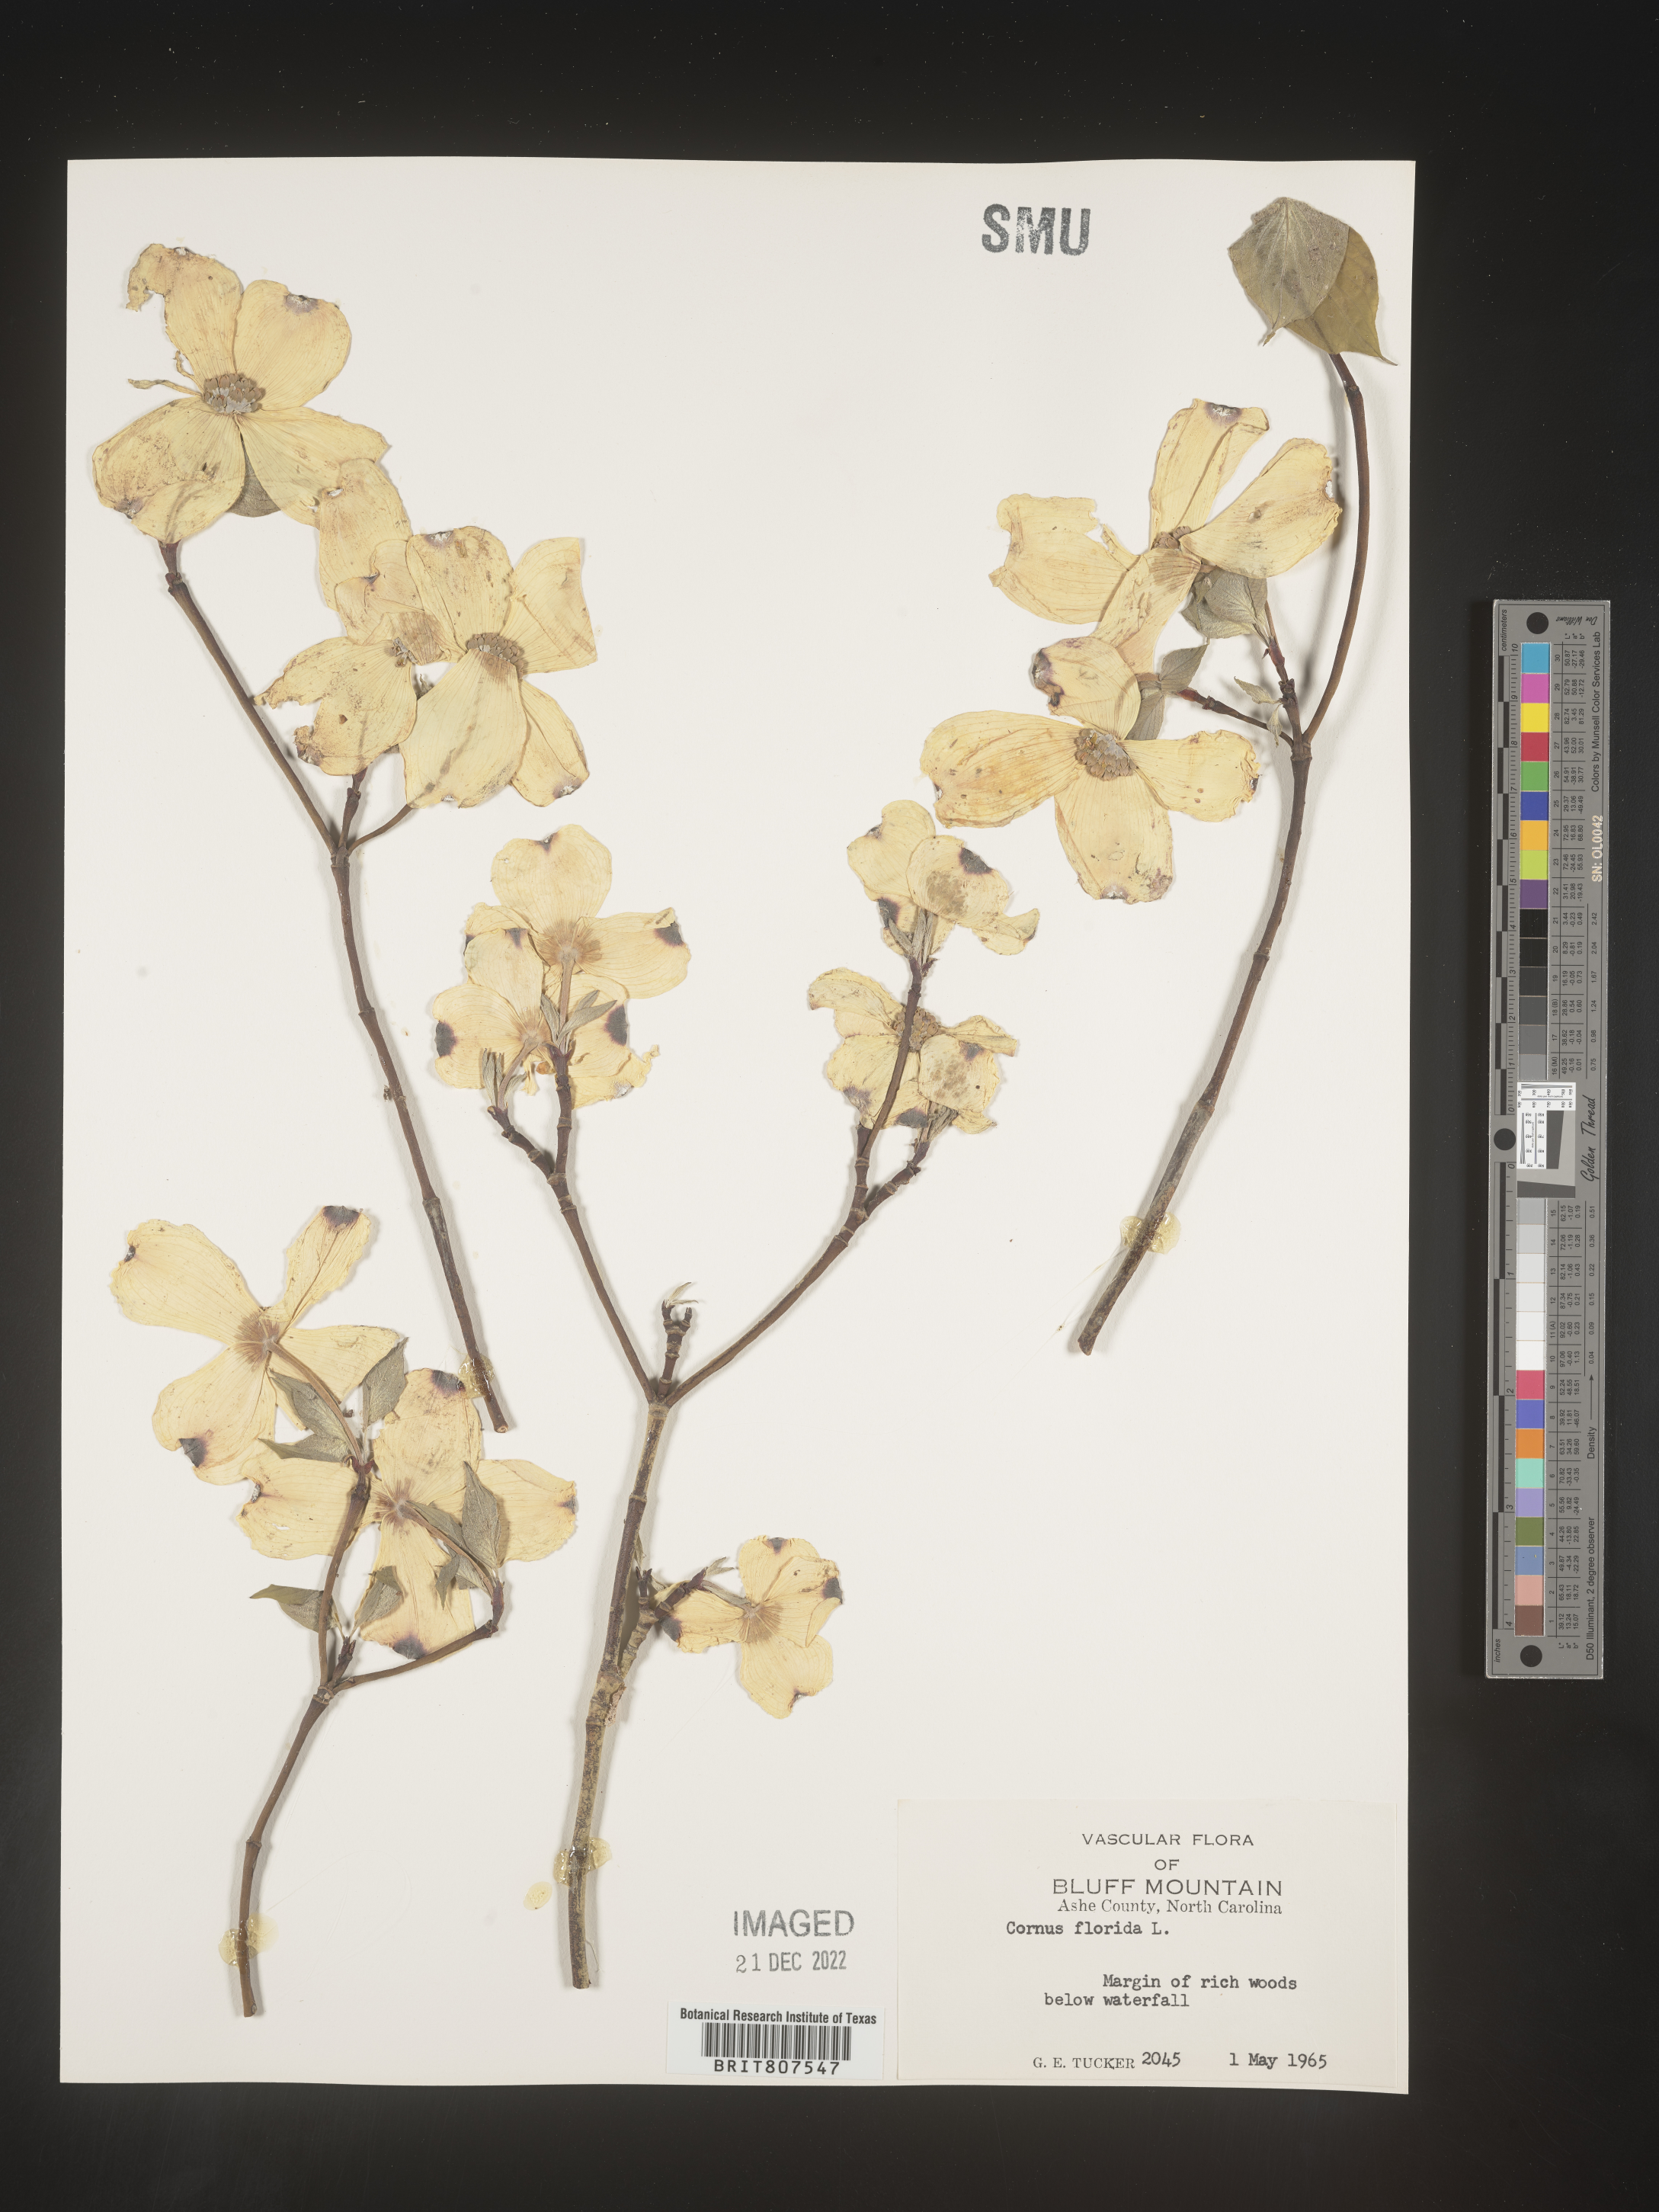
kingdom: Plantae
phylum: Tracheophyta
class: Magnoliopsida
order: Cornales
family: Cornaceae
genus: Cornus
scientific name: Cornus florida
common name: Flowering dogwood
